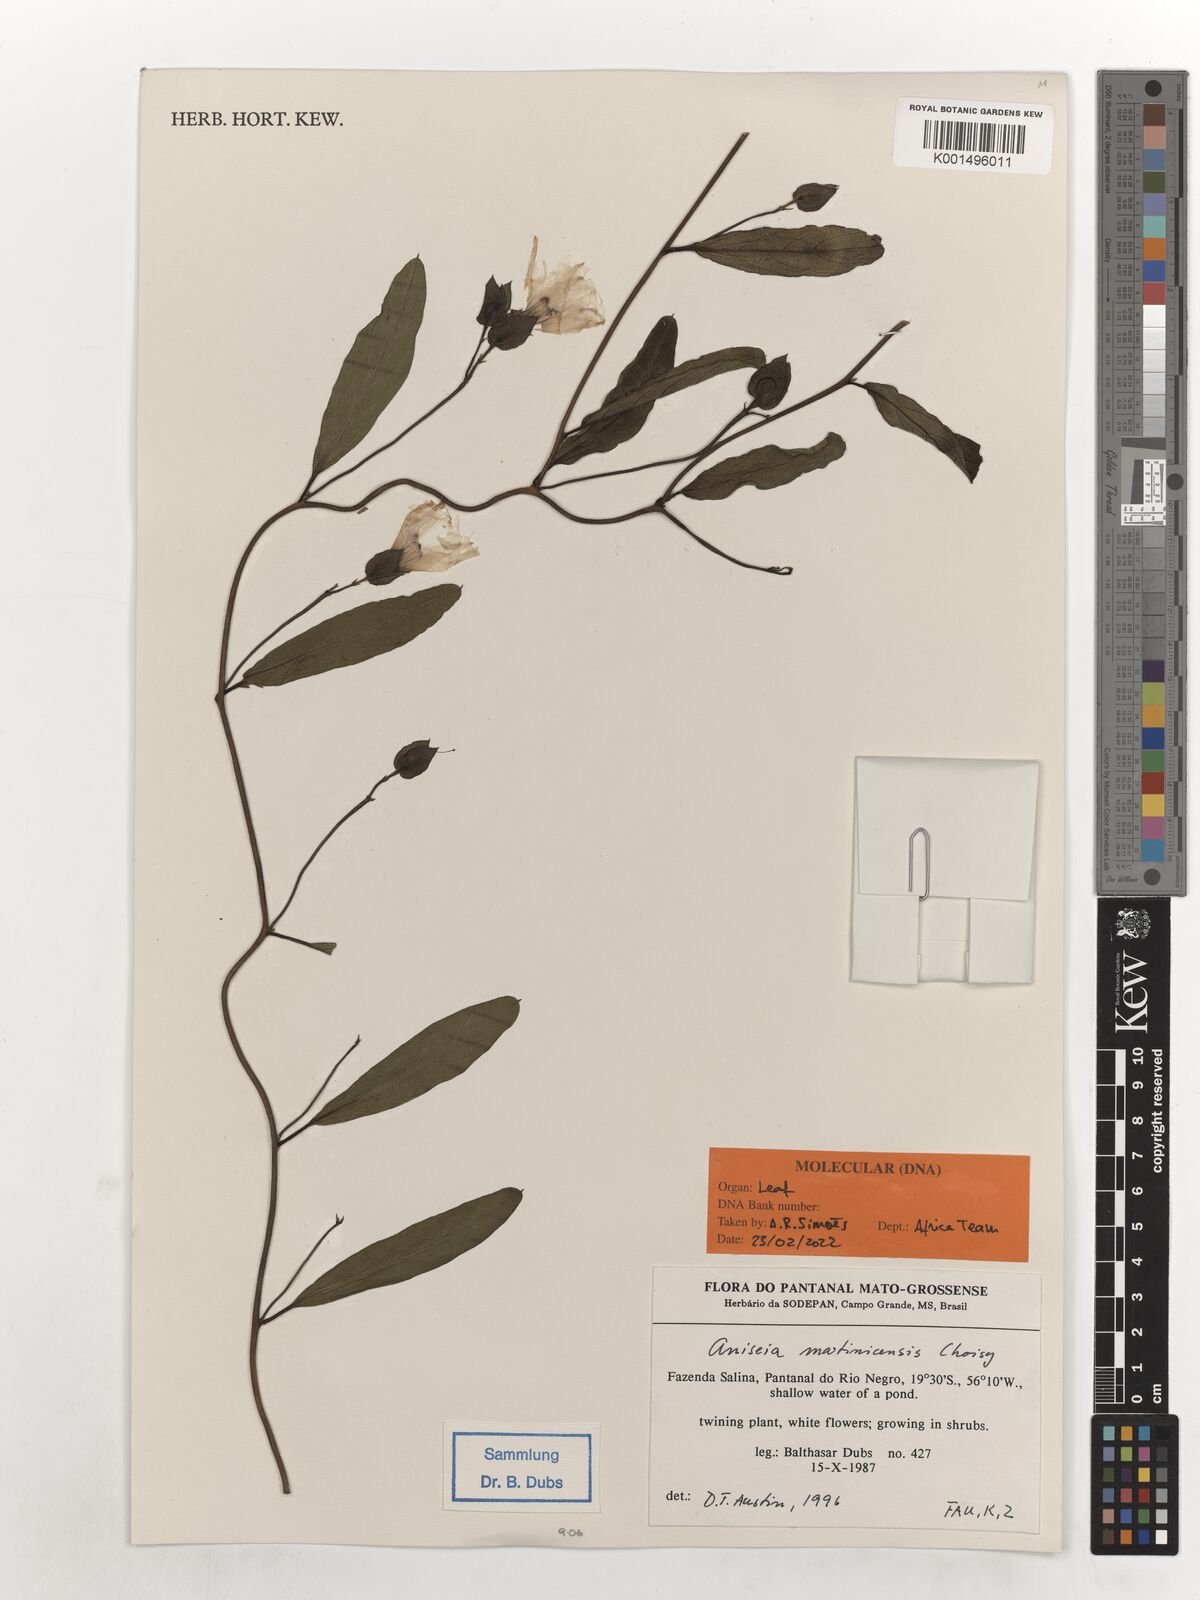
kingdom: Plantae
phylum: Tracheophyta
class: Magnoliopsida
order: Solanales
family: Convolvulaceae
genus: Aniseia
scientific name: Aniseia martinicensis
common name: Kulayadambu
